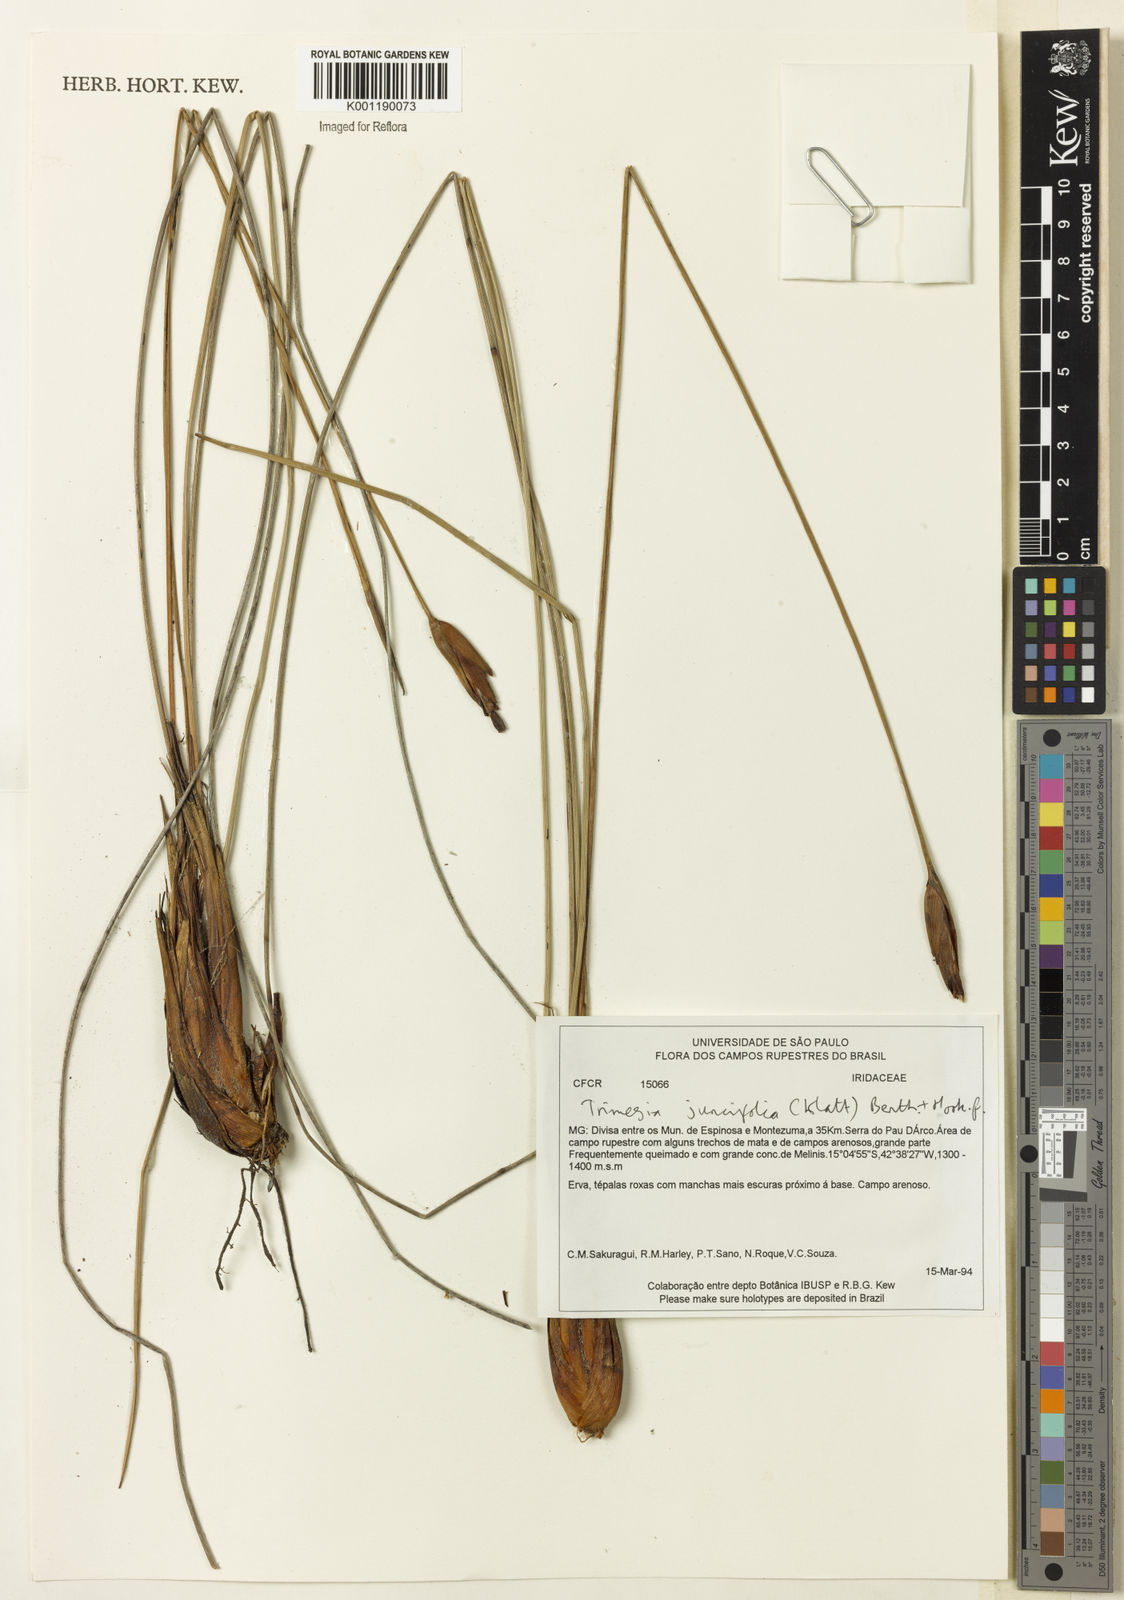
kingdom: Plantae
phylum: Tracheophyta
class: Liliopsida
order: Asparagales
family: Iridaceae
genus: Trimezia
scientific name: Trimezia juncifolia
